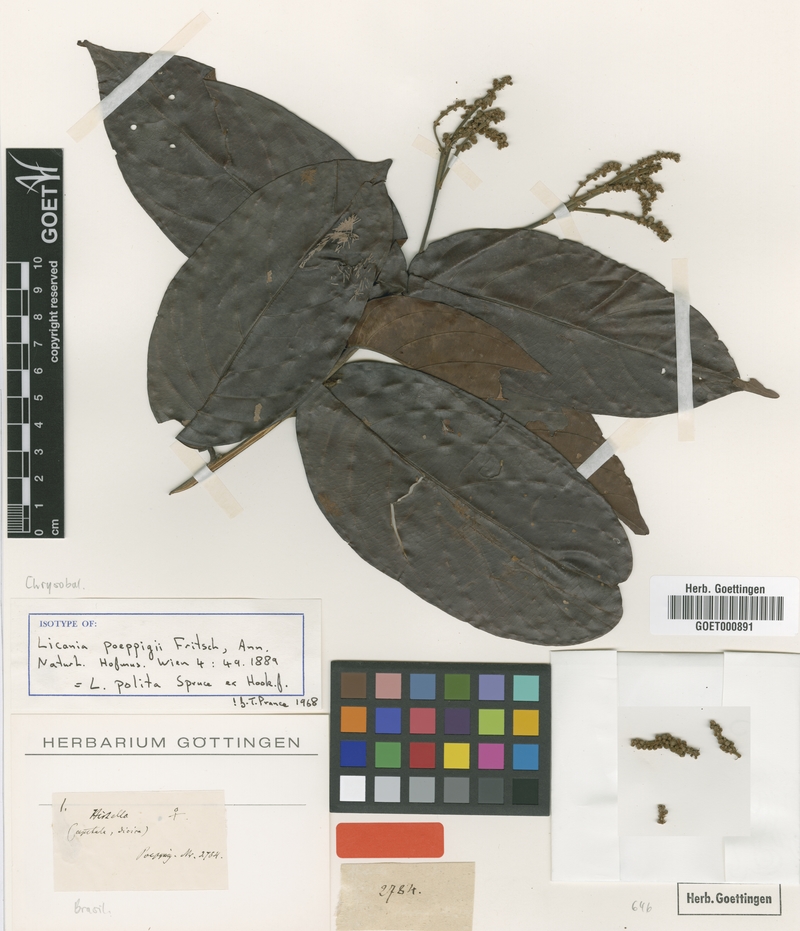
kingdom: Plantae
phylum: Tracheophyta
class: Magnoliopsida
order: Malpighiales
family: Chrysobalanaceae
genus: Licania
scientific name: Licania polita
